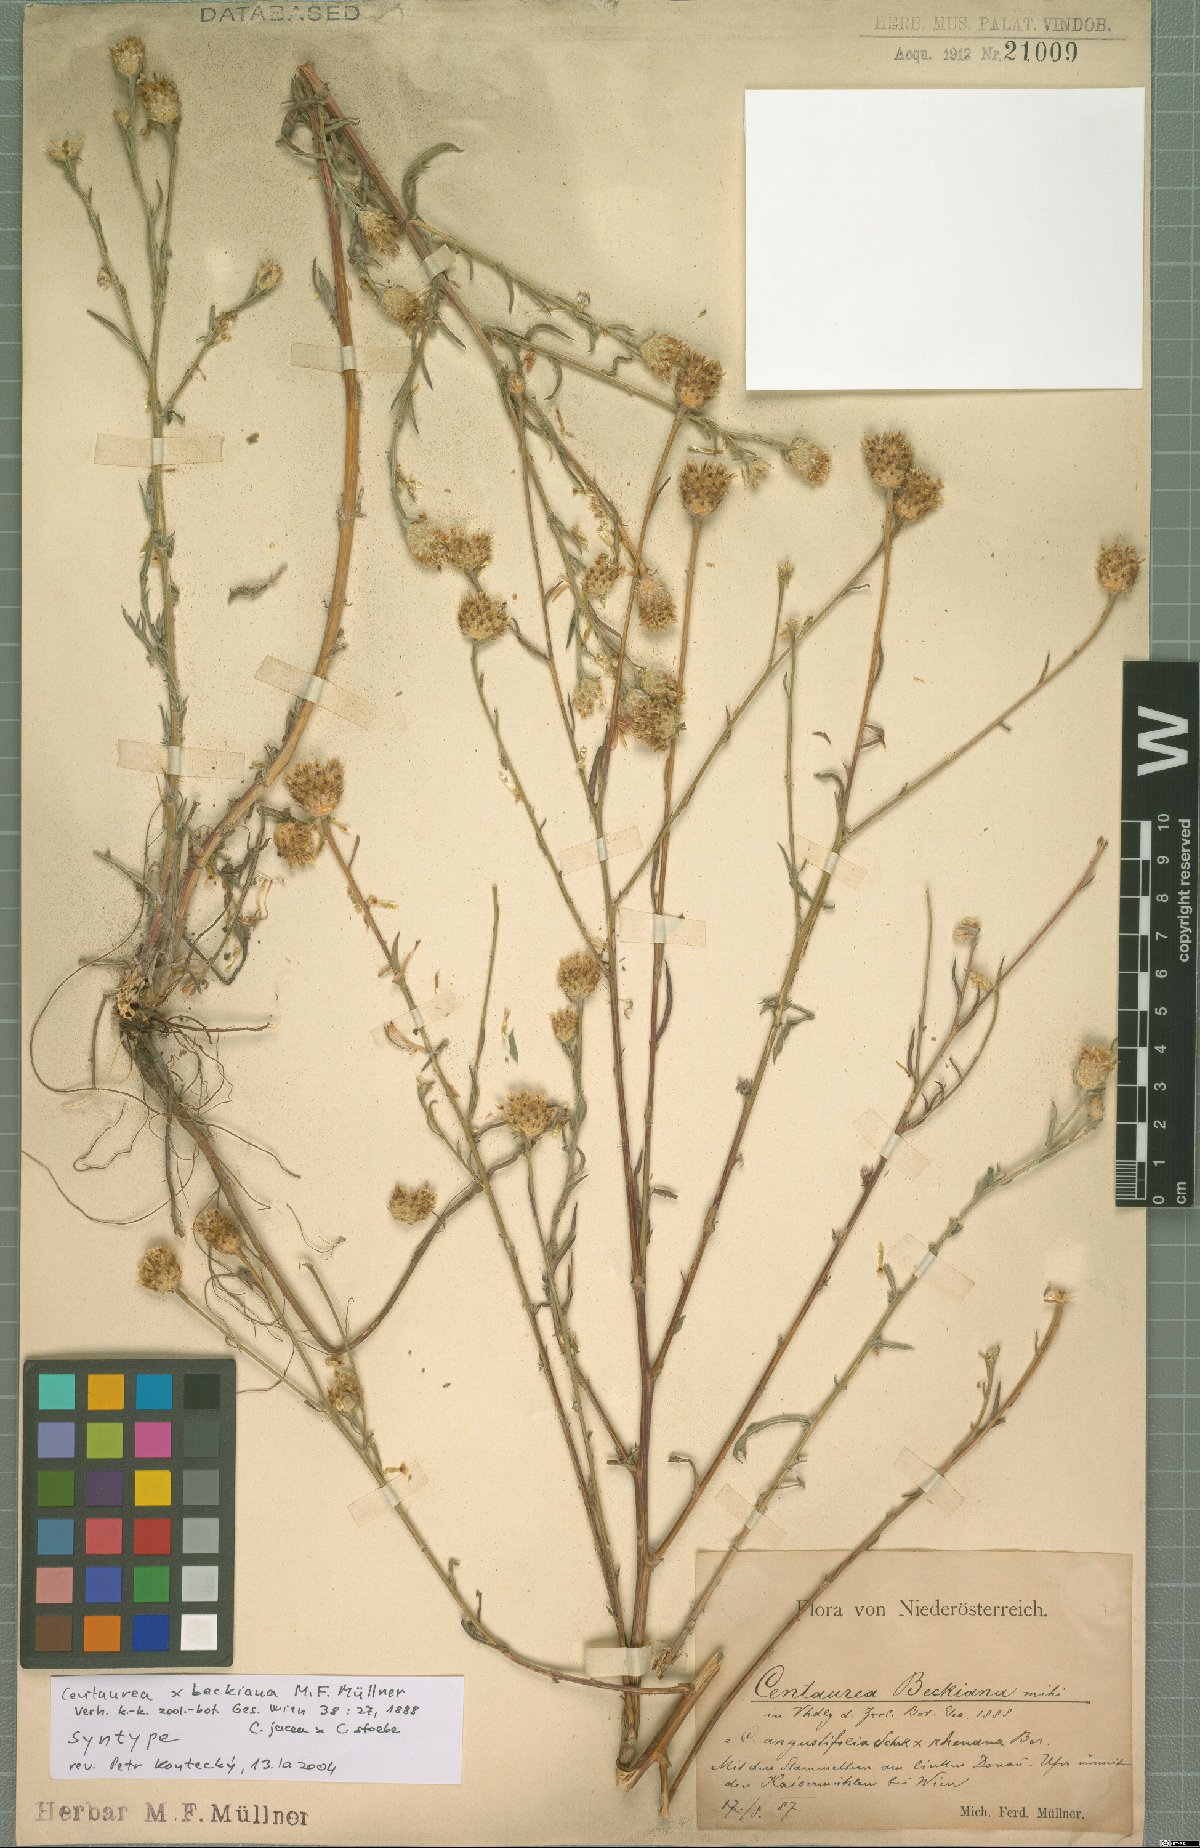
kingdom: Plantae
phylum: Tracheophyta
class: Magnoliopsida
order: Asterales
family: Asteraceae
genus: Centaurea
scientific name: Centaurea beckiana
